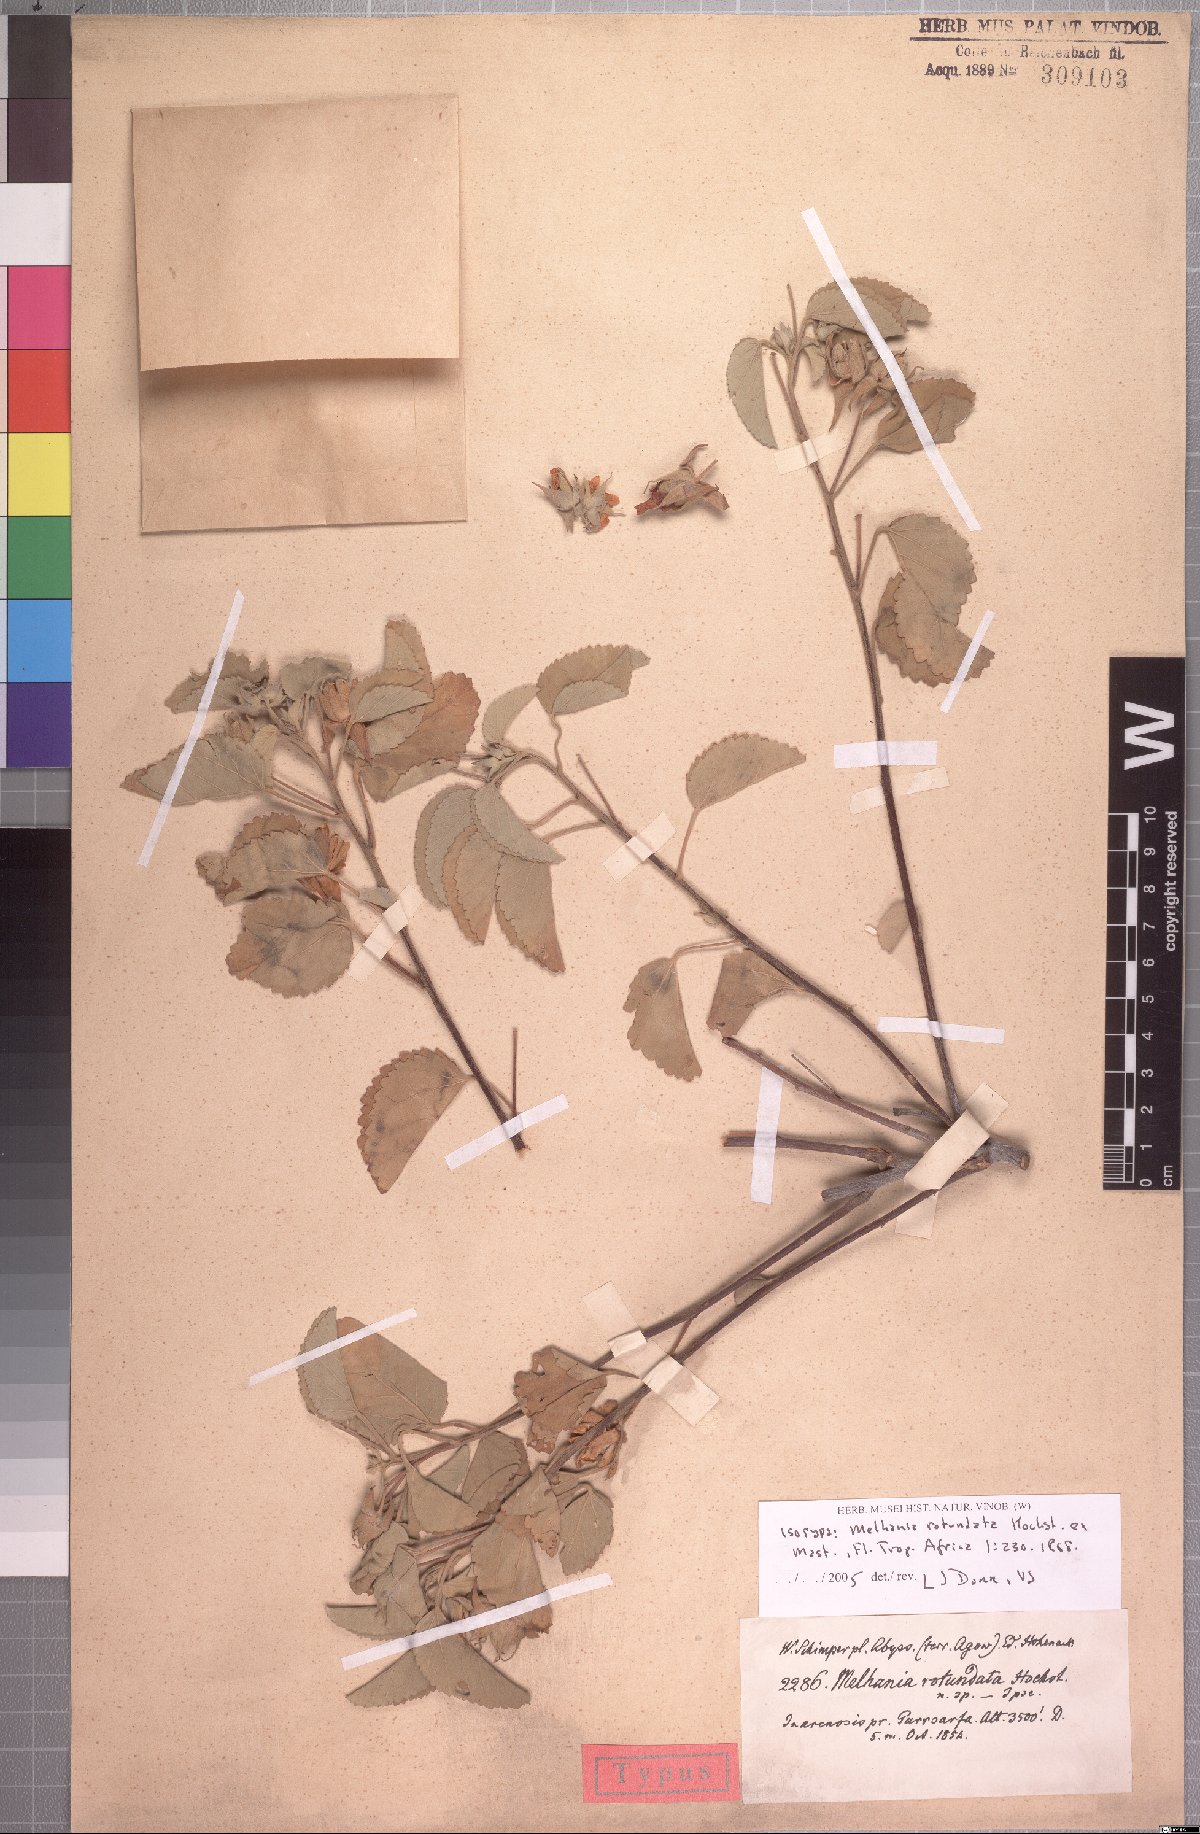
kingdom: Plantae
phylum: Tracheophyta
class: Magnoliopsida
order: Malvales
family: Malvaceae
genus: Melhania
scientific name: Melhania rotundata
